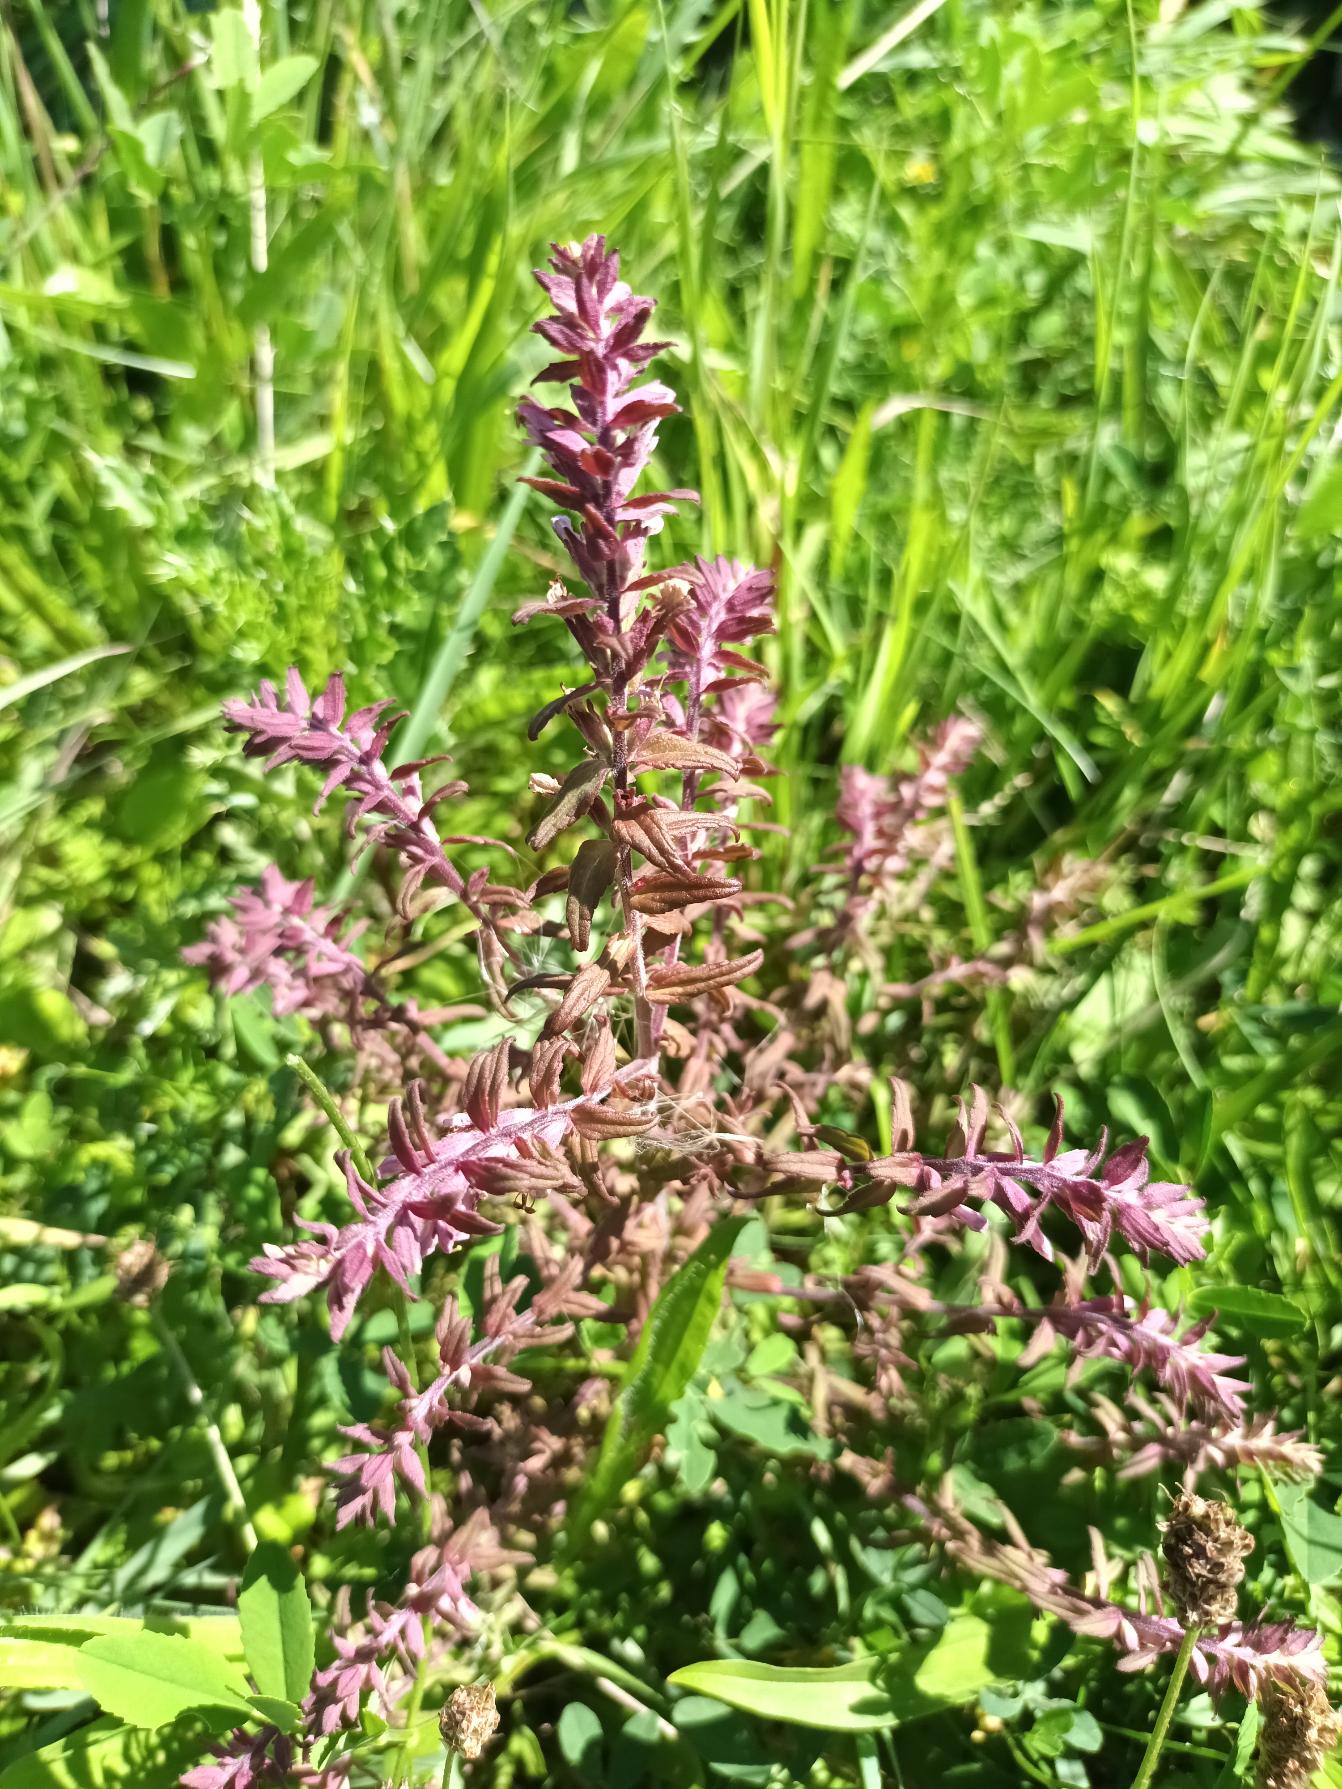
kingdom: Plantae
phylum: Tracheophyta
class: Magnoliopsida
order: Lamiales
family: Orobanchaceae
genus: Odontites
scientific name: Odontites vulgaris
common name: Høst-rødtop
